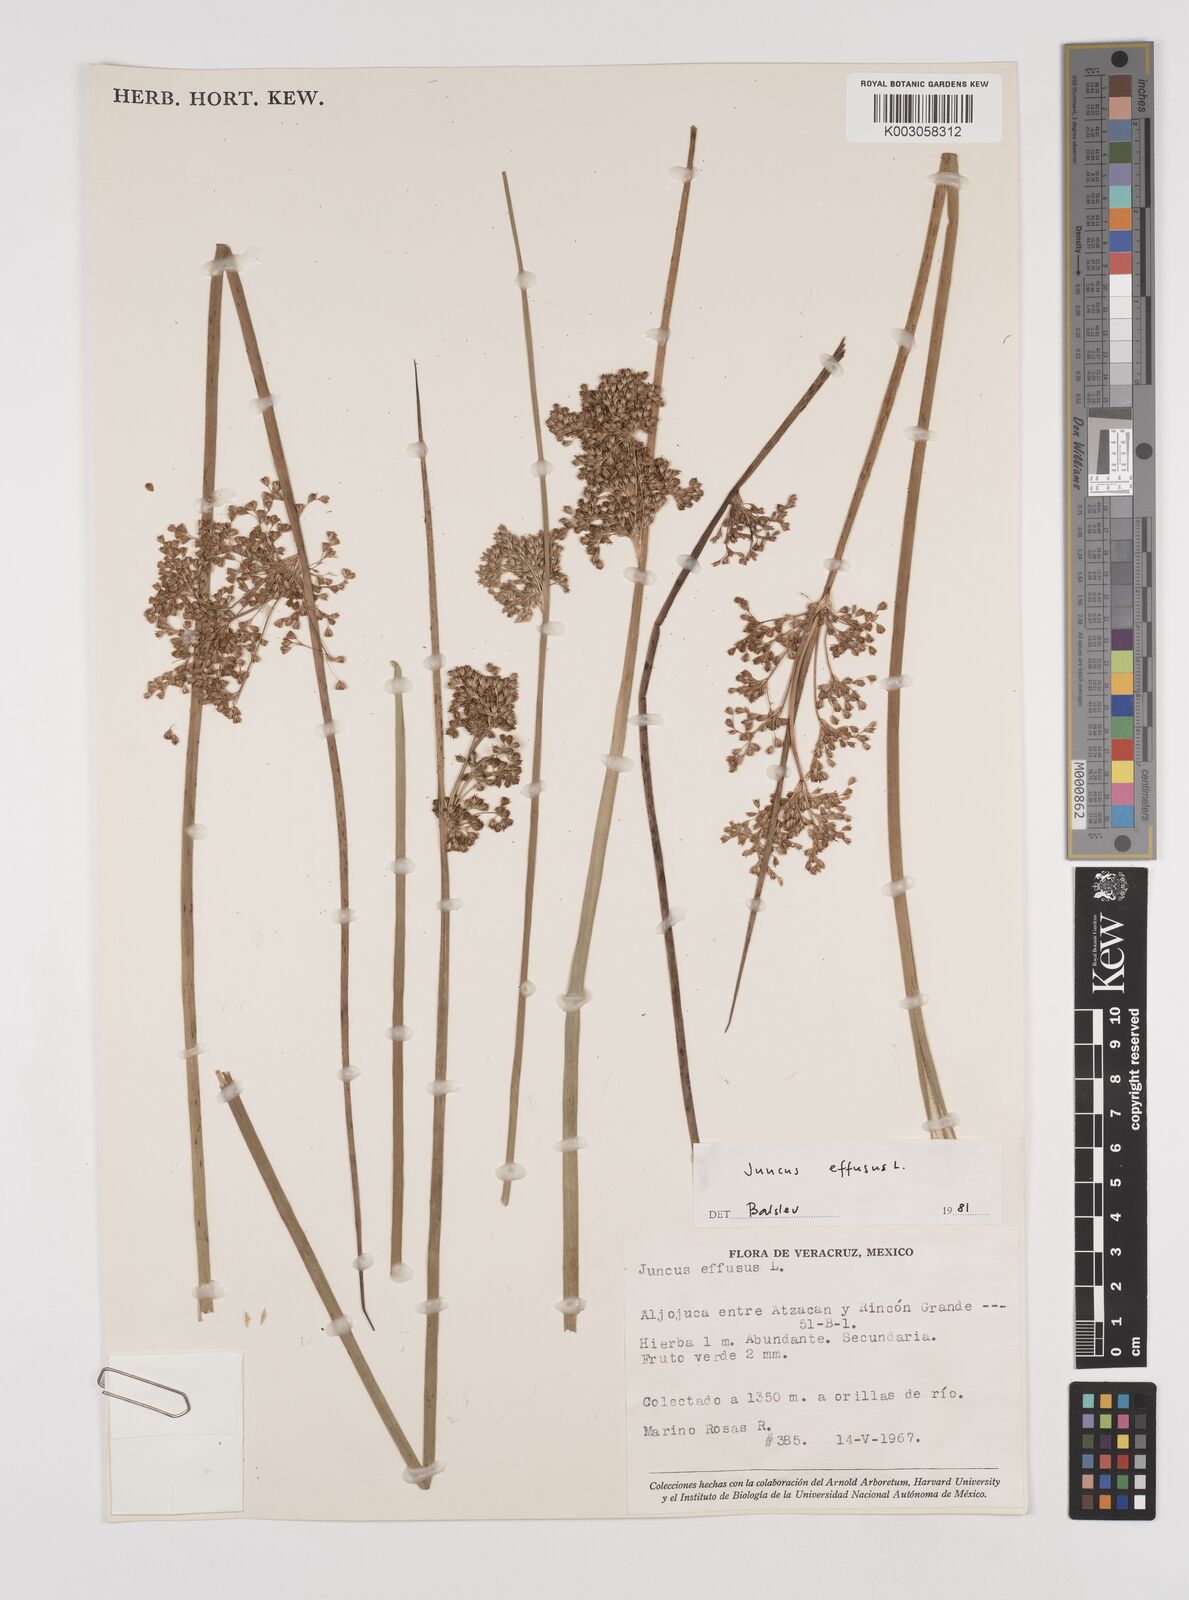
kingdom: Plantae
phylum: Tracheophyta
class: Liliopsida
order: Poales
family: Juncaceae
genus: Juncus
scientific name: Juncus effusus
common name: Soft rush
